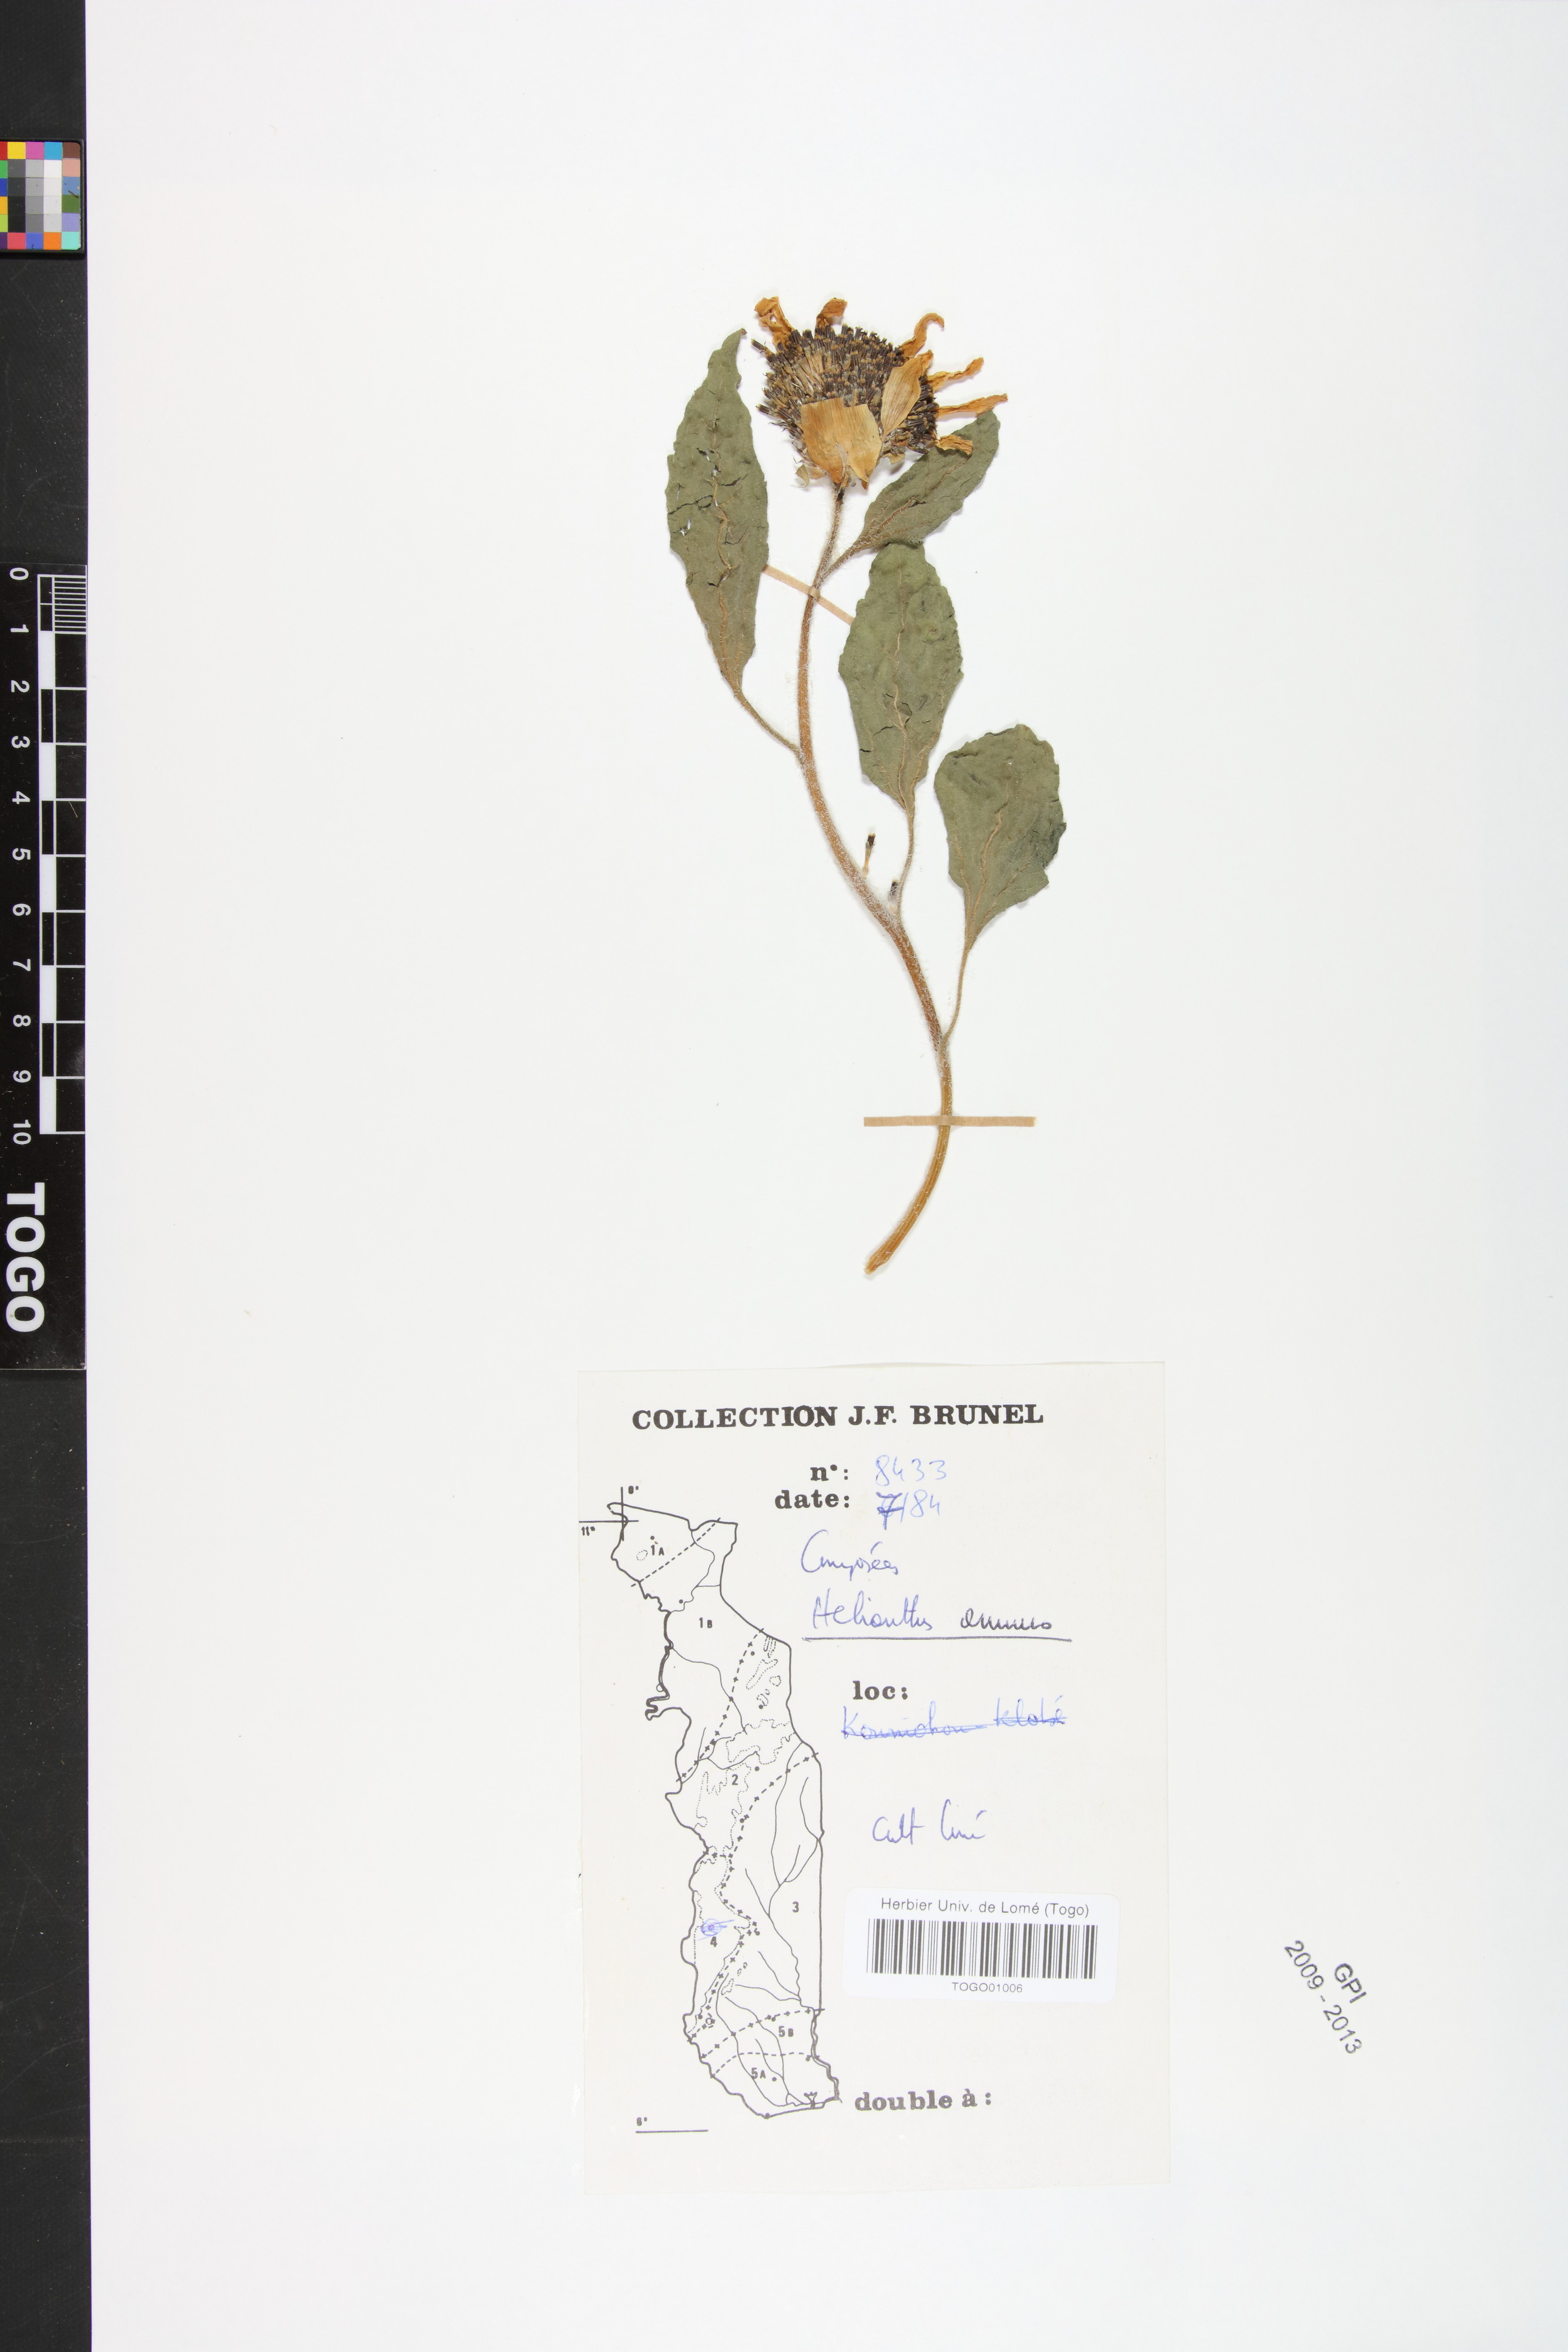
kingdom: Plantae
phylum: Tracheophyta
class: Magnoliopsida
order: Asterales
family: Asteraceae
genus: Helianthus
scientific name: Helianthus annuus
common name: Sunflower
